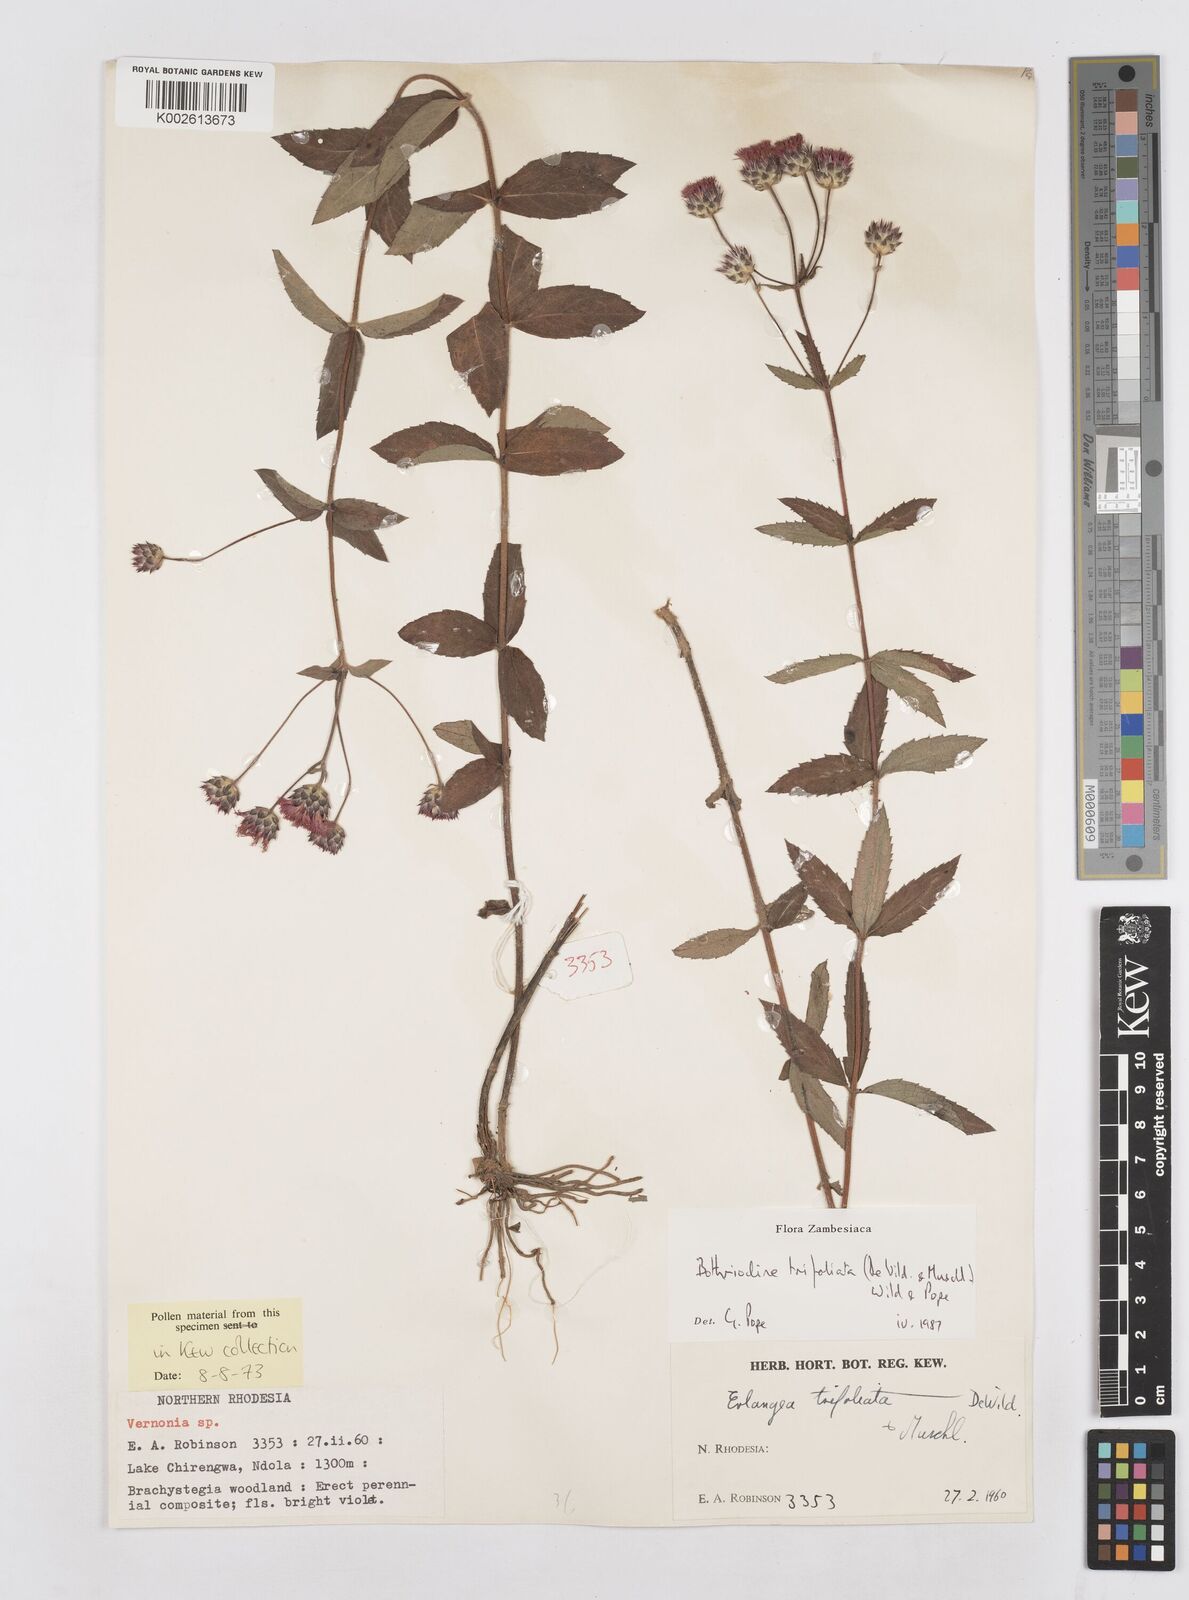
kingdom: Plantae
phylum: Tracheophyta
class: Magnoliopsida
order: Asterales
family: Asteraceae
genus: Bothriocline
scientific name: Bothriocline trifoliata
